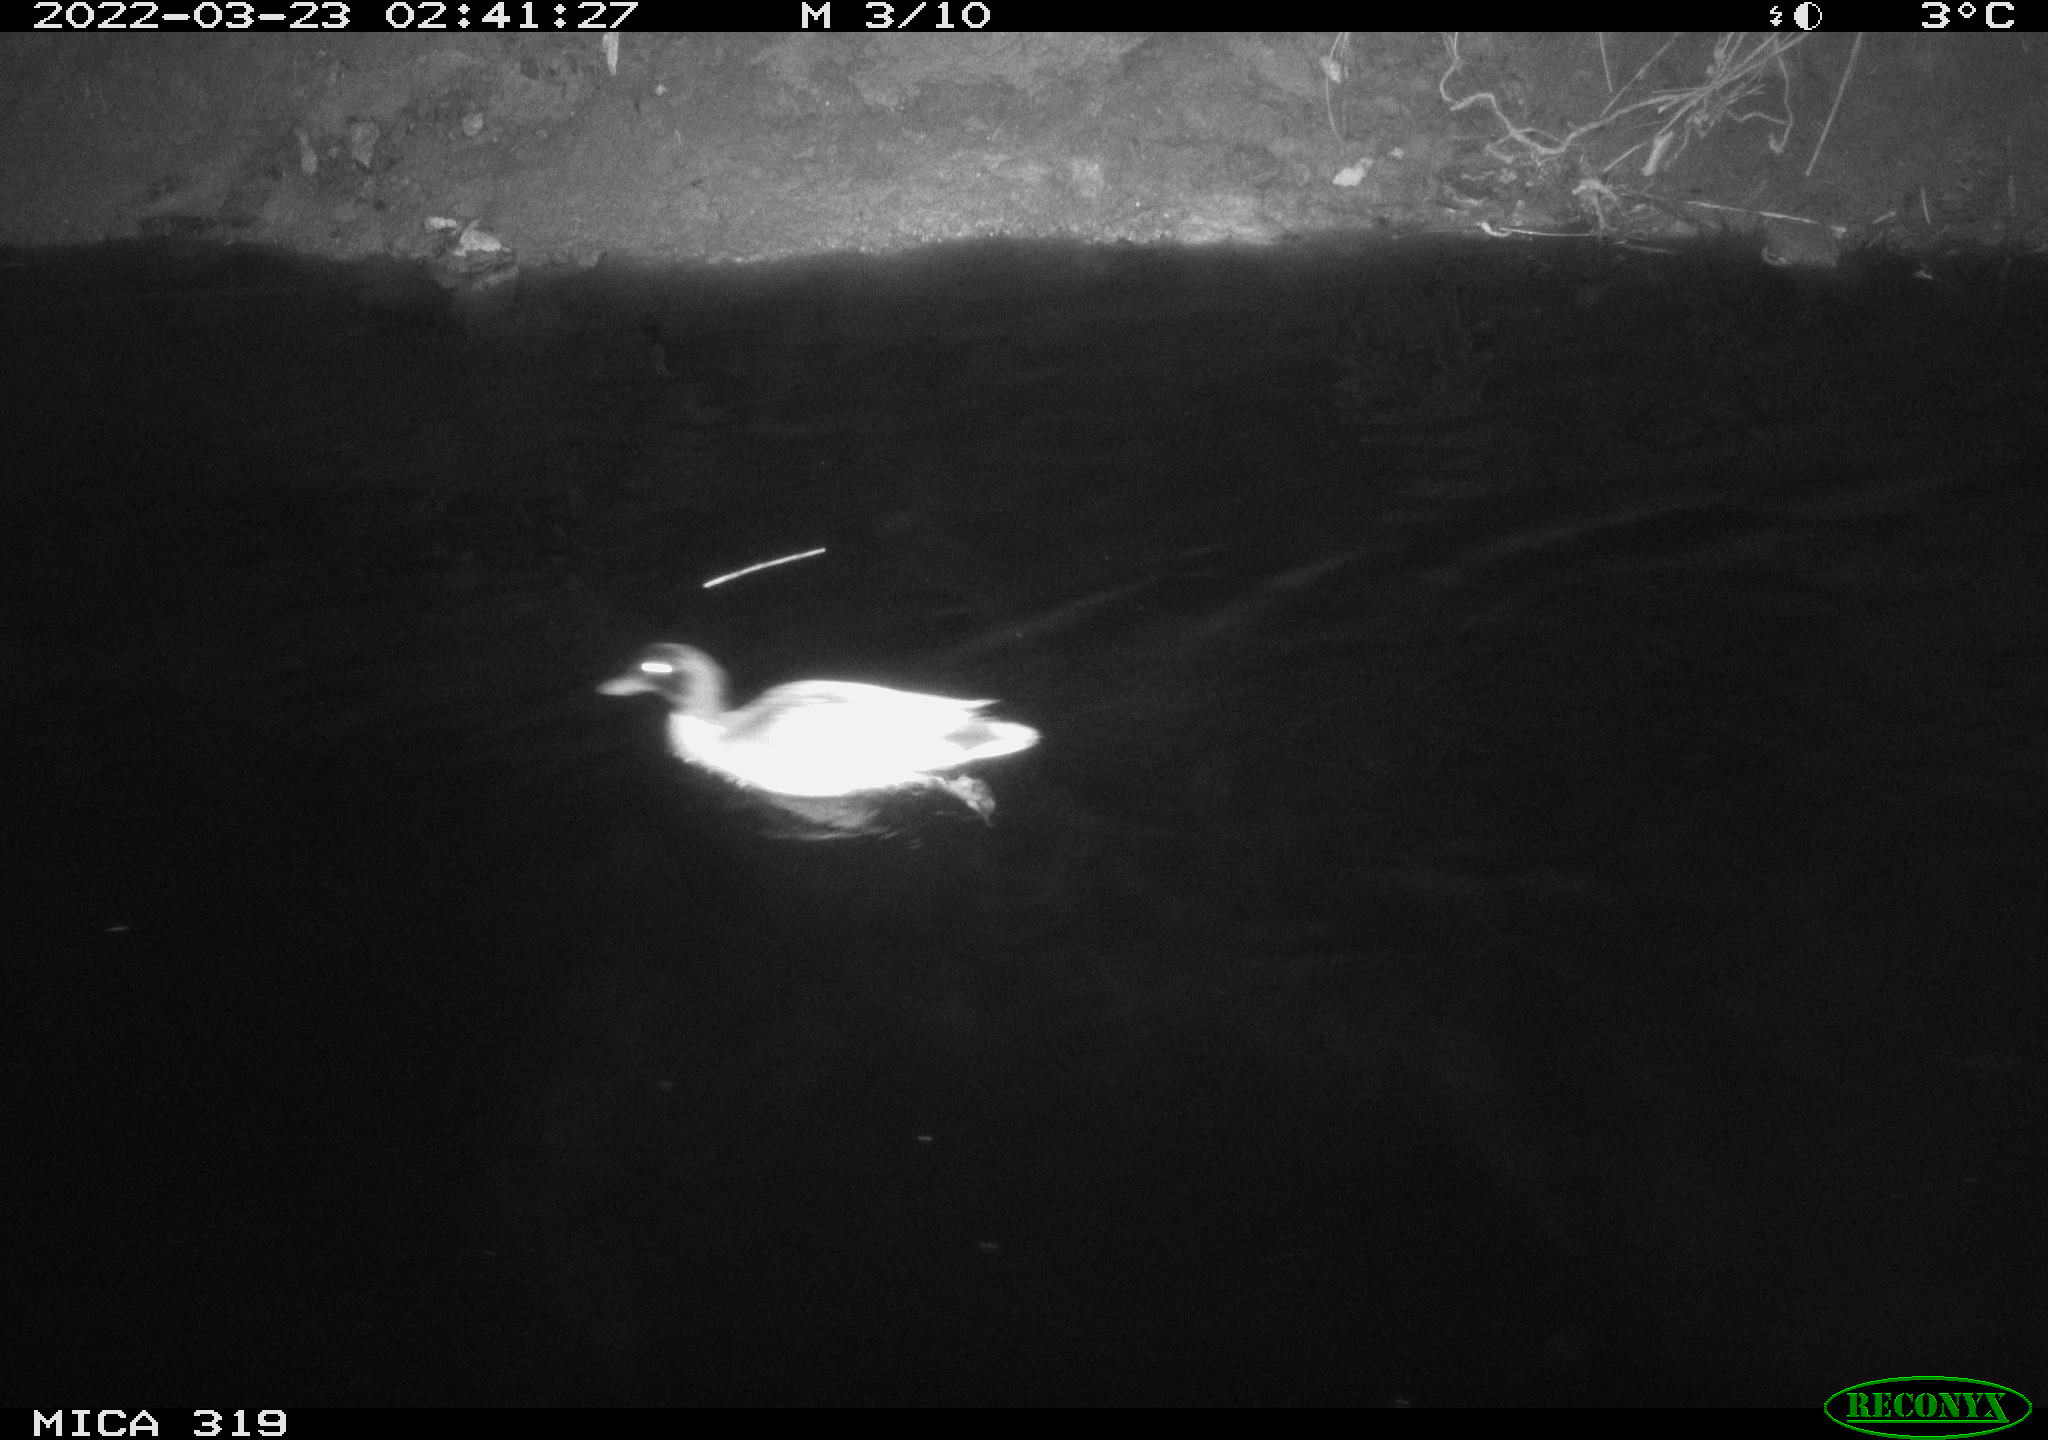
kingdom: Animalia
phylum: Chordata
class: Aves
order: Anseriformes
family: Anatidae
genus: Anas
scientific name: Anas platyrhynchos
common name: Mallard
